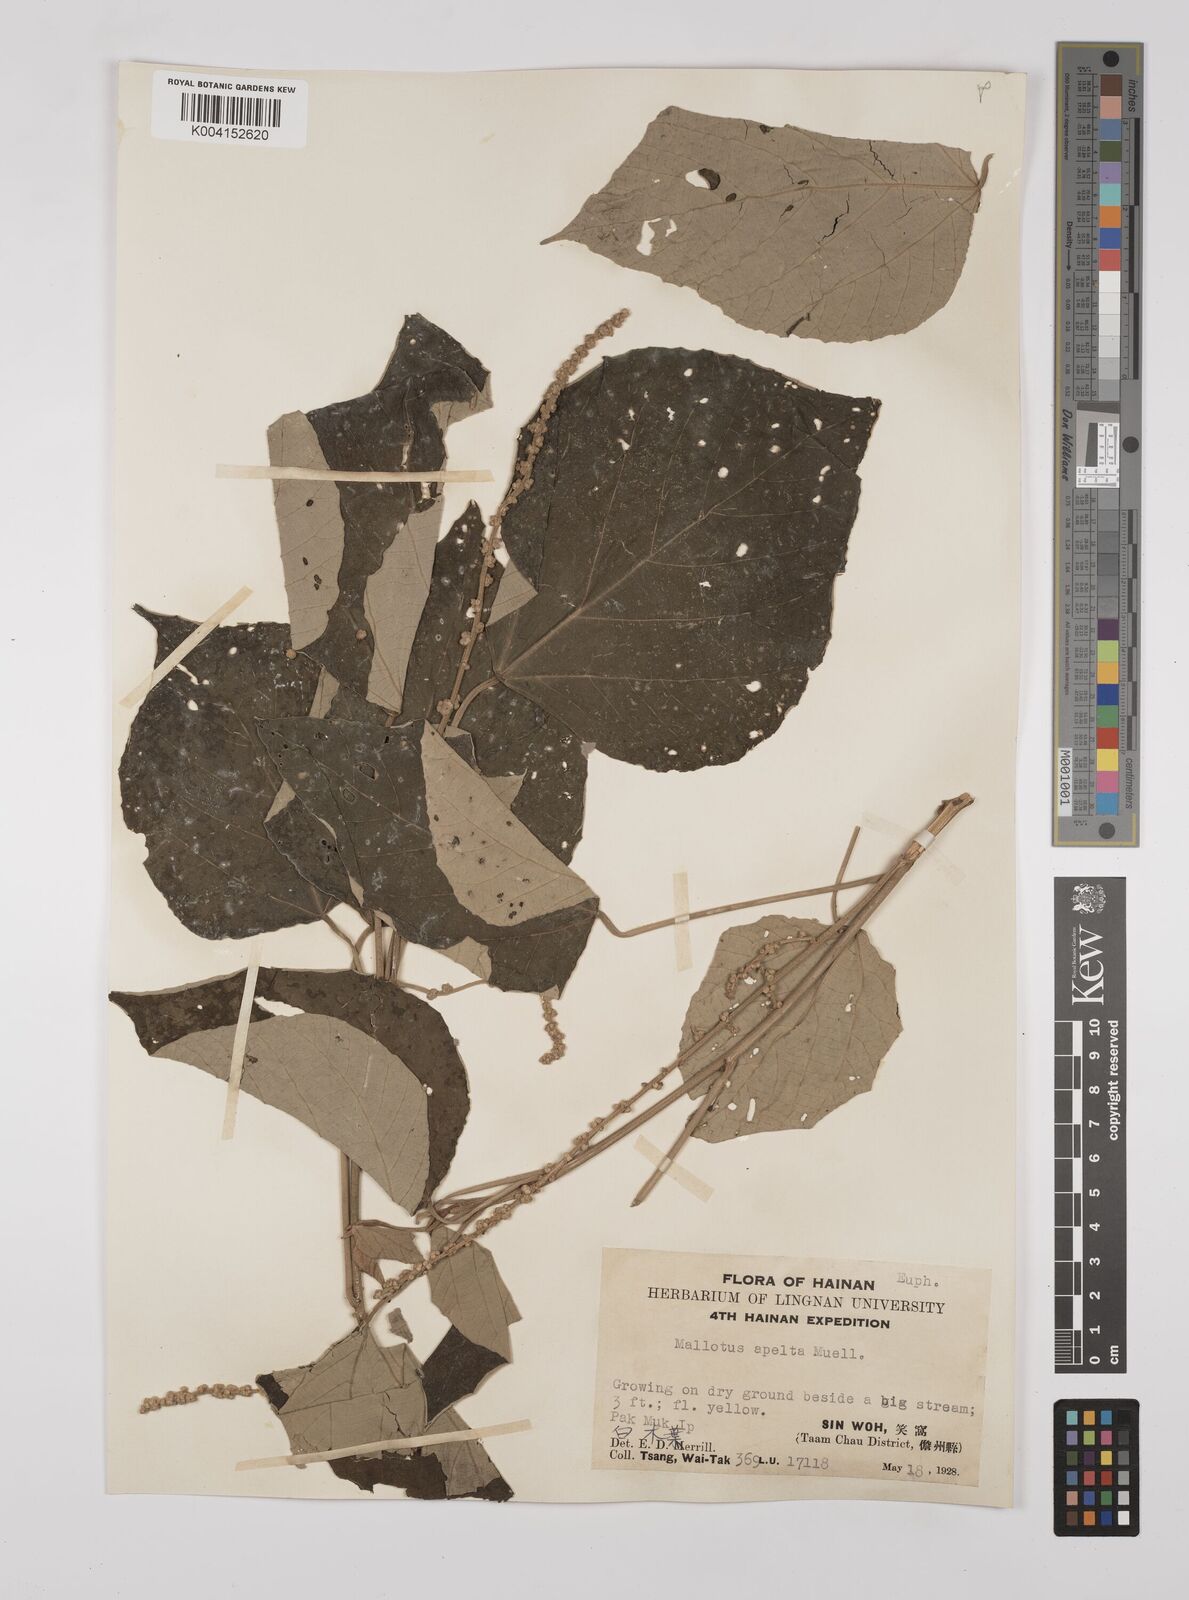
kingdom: Plantae
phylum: Tracheophyta
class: Magnoliopsida
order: Malpighiales
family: Euphorbiaceae
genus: Mallotus
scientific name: Mallotus apelta
